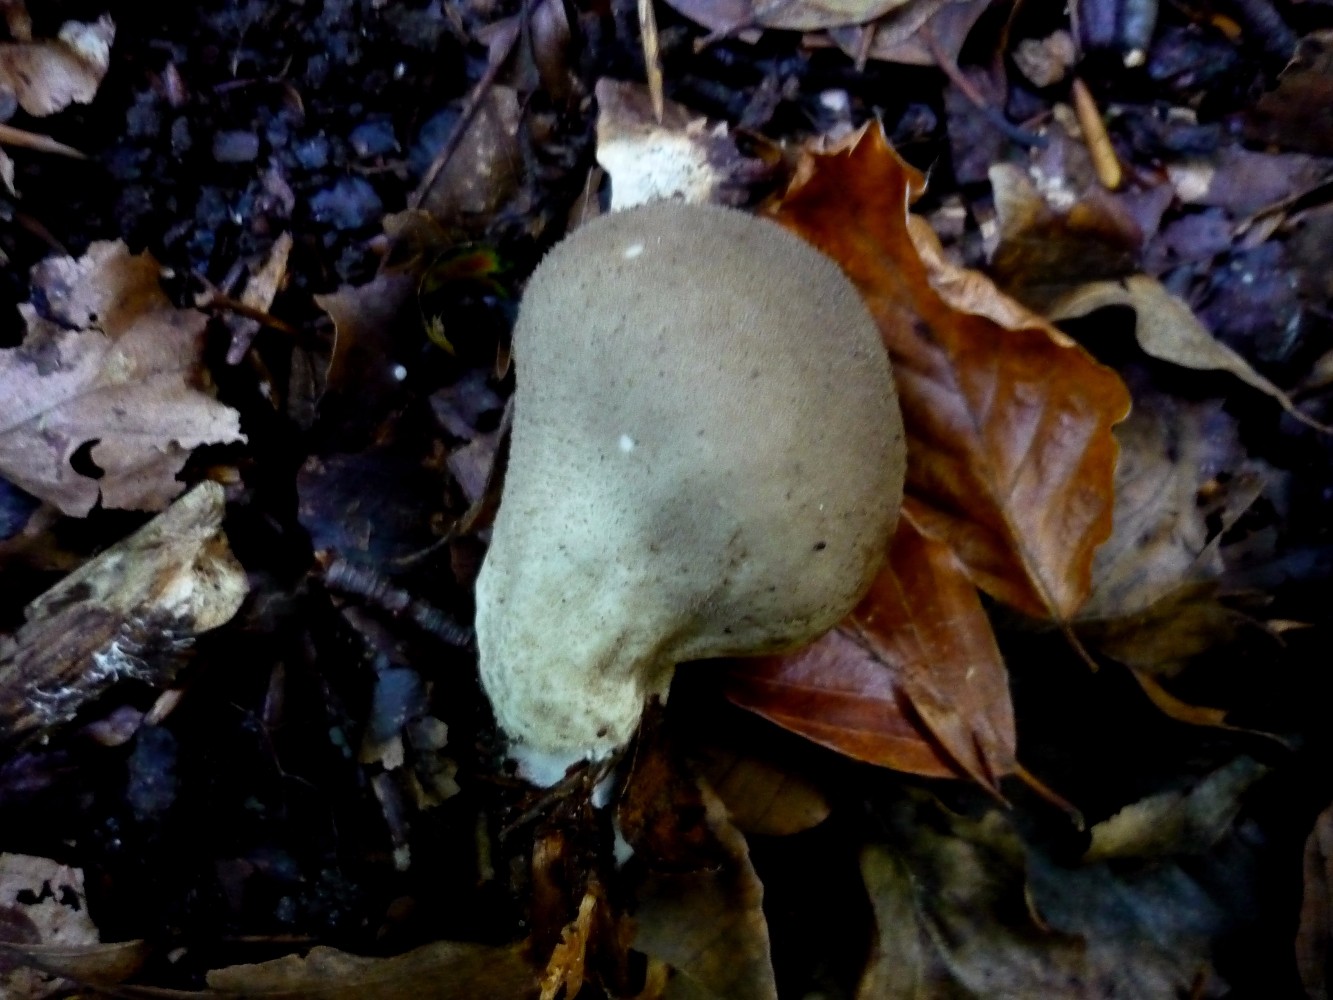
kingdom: Fungi
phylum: Basidiomycota
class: Agaricomycetes
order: Agaricales
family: Lycoperdaceae
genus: Lycoperdon
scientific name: Lycoperdon molle
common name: skov-støvbold
